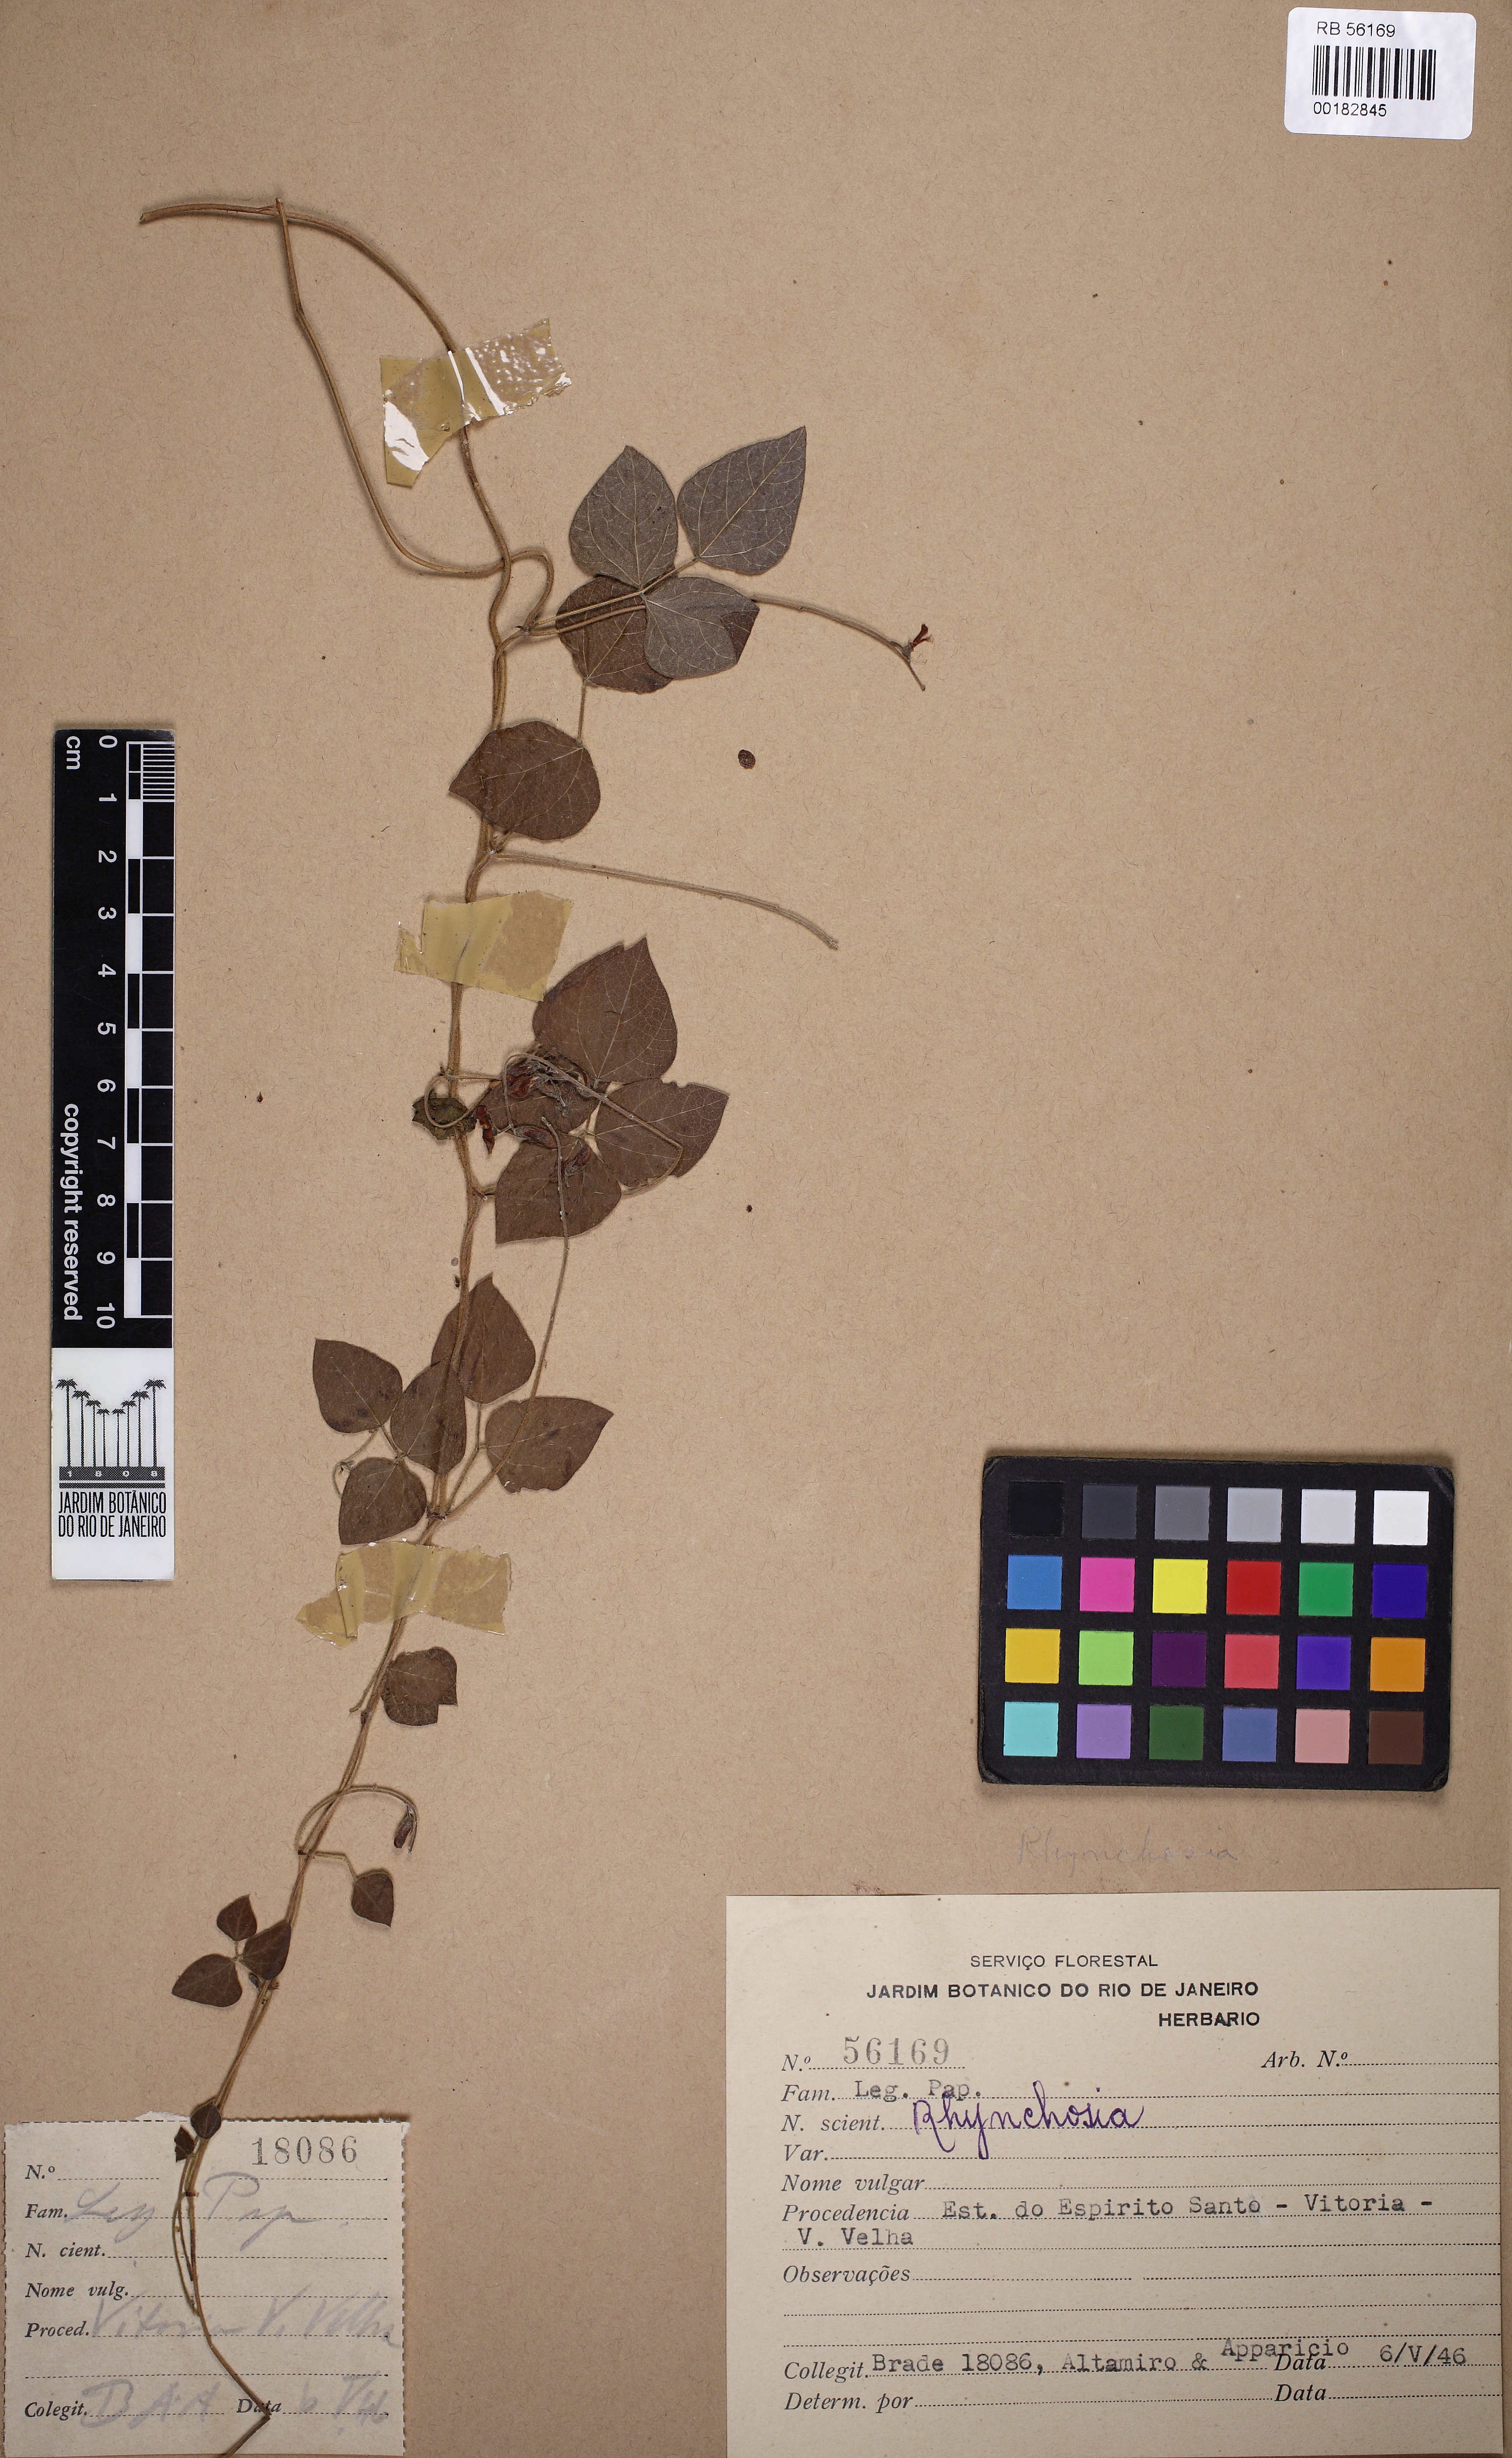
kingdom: Plantae
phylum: Tracheophyta
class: Magnoliopsida
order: Fabales
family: Fabaceae
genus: Rhynchosia
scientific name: Rhynchosia
